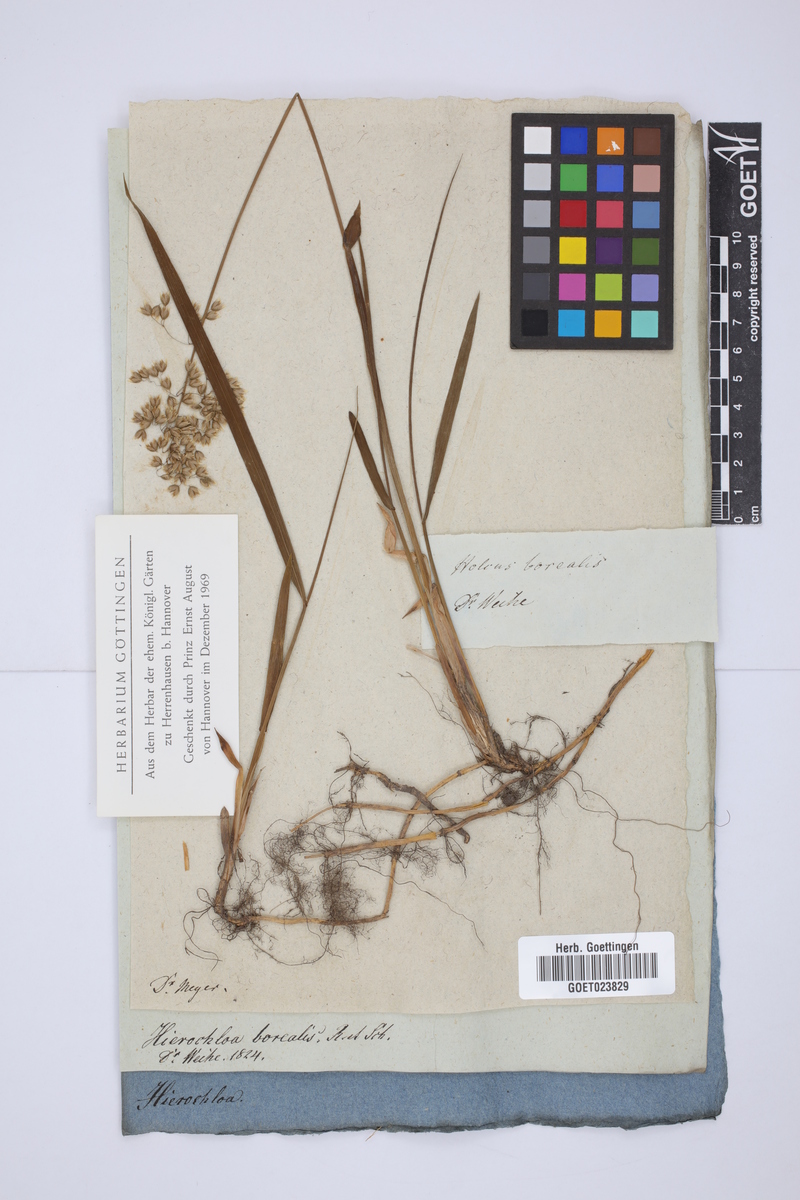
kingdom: Plantae
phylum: Tracheophyta
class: Liliopsida
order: Poales
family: Poaceae
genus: Anthoxanthum
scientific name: Anthoxanthum nitens
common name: Holy grass
